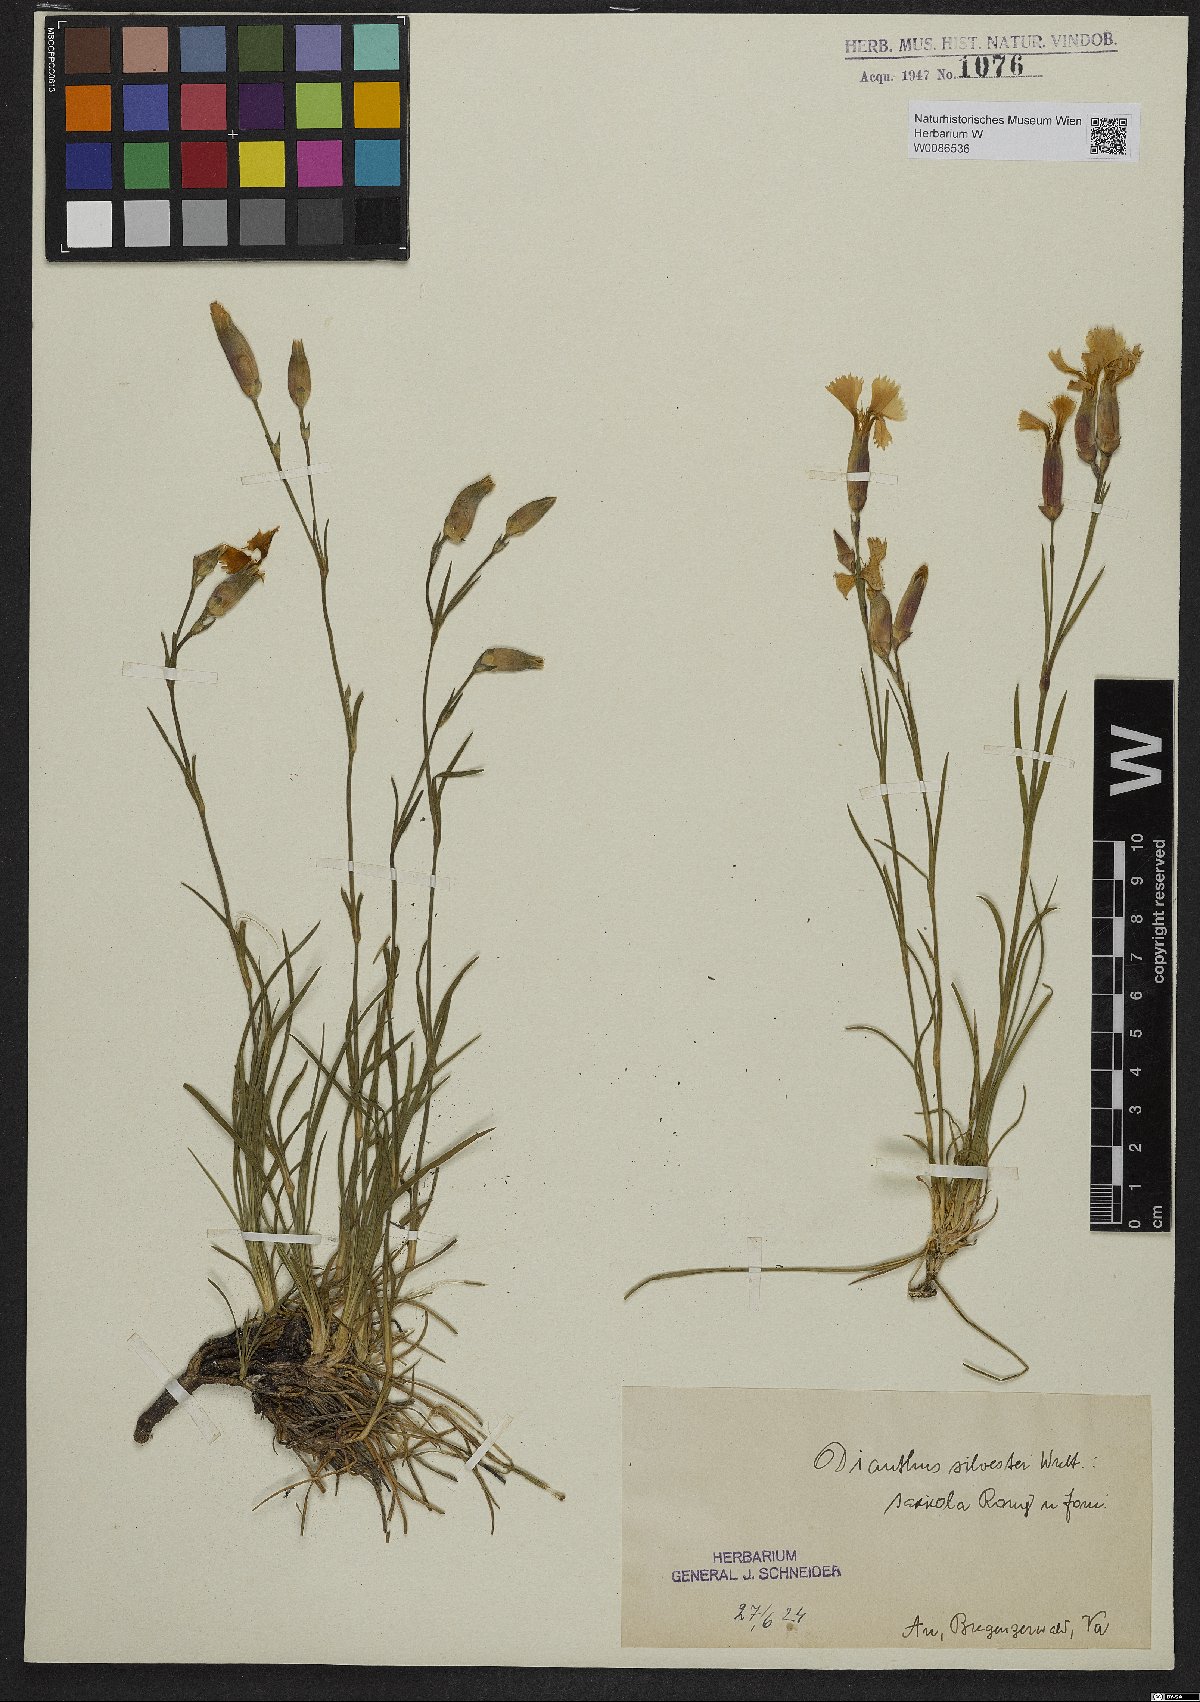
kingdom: Plantae
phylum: Tracheophyta
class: Magnoliopsida
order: Caryophyllales
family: Caryophyllaceae
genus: Dianthus
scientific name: Dianthus sylvestris
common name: Wood pink
